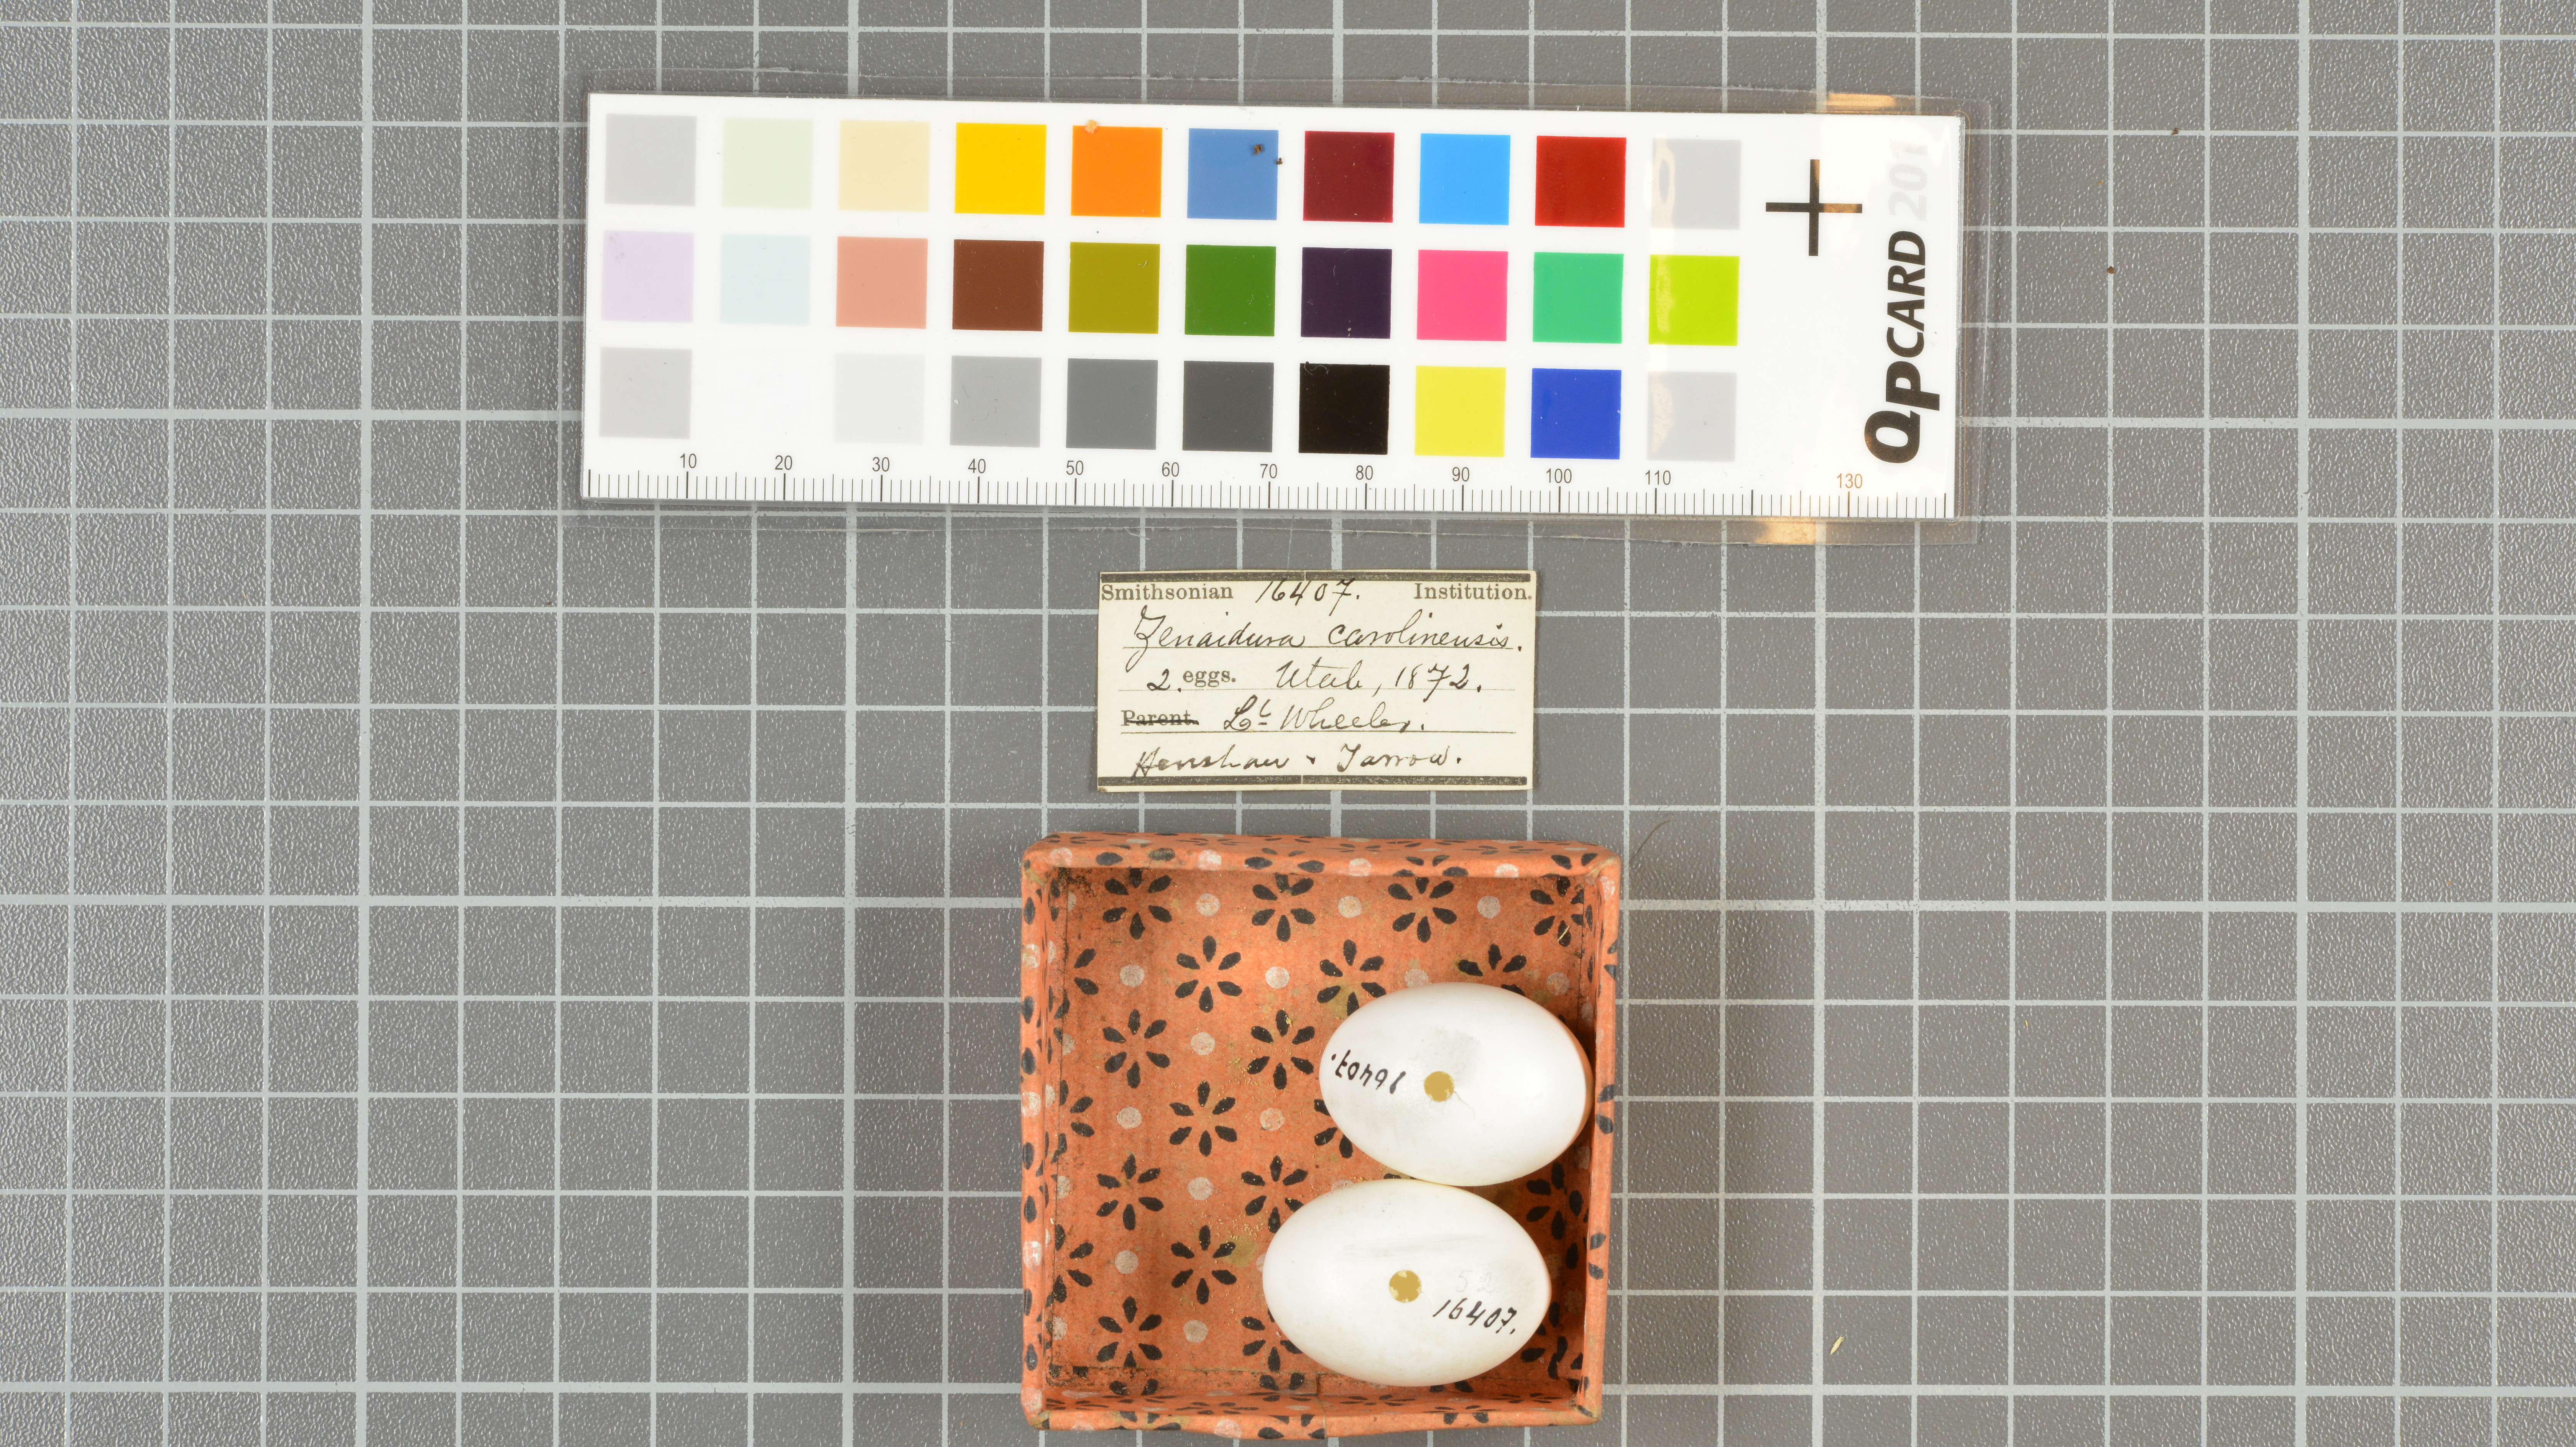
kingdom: Animalia
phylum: Chordata
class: Aves
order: Columbiformes
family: Columbidae
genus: Zenaida
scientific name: Zenaida macroura
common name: Mourning dove
